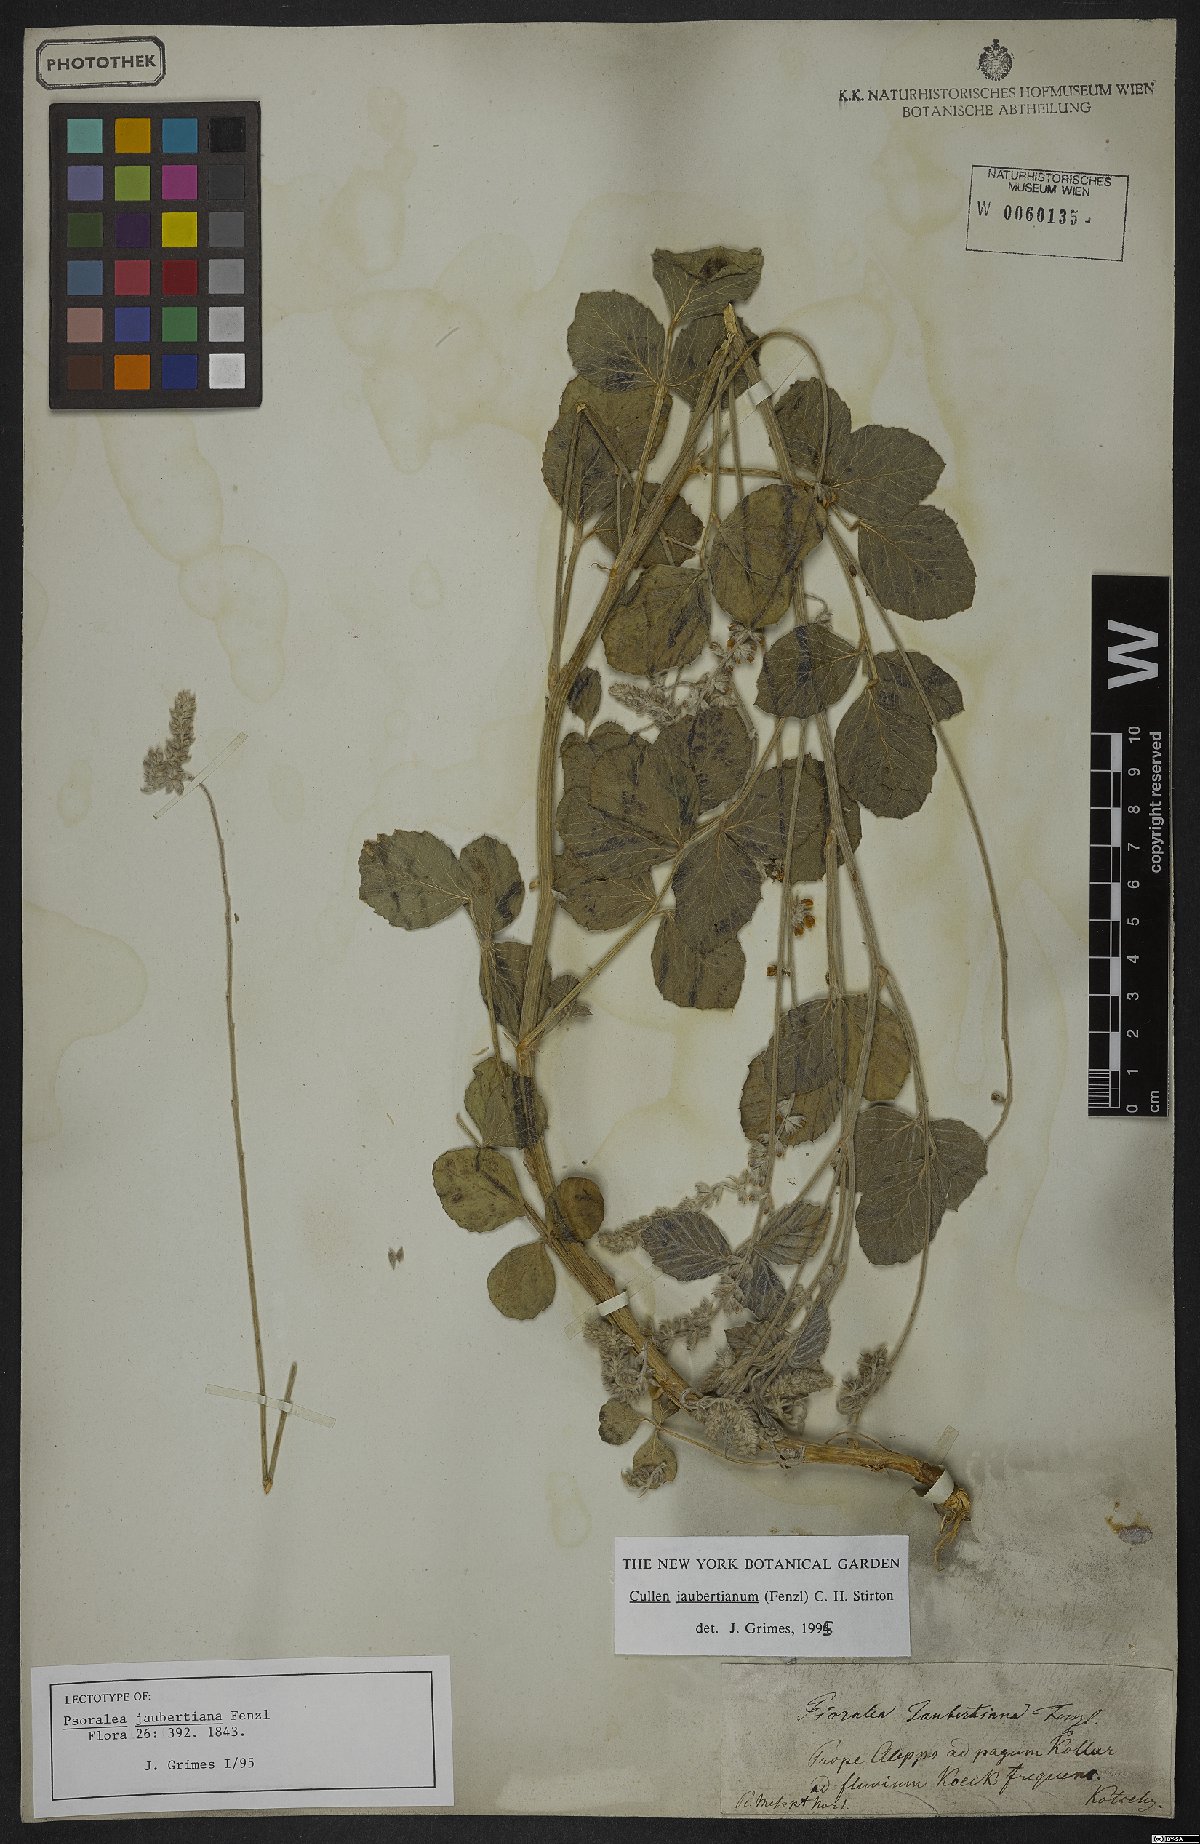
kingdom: Plantae
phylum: Tracheophyta
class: Magnoliopsida
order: Fabales
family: Fabaceae
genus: Cullen
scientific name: Cullen jaubertianum
